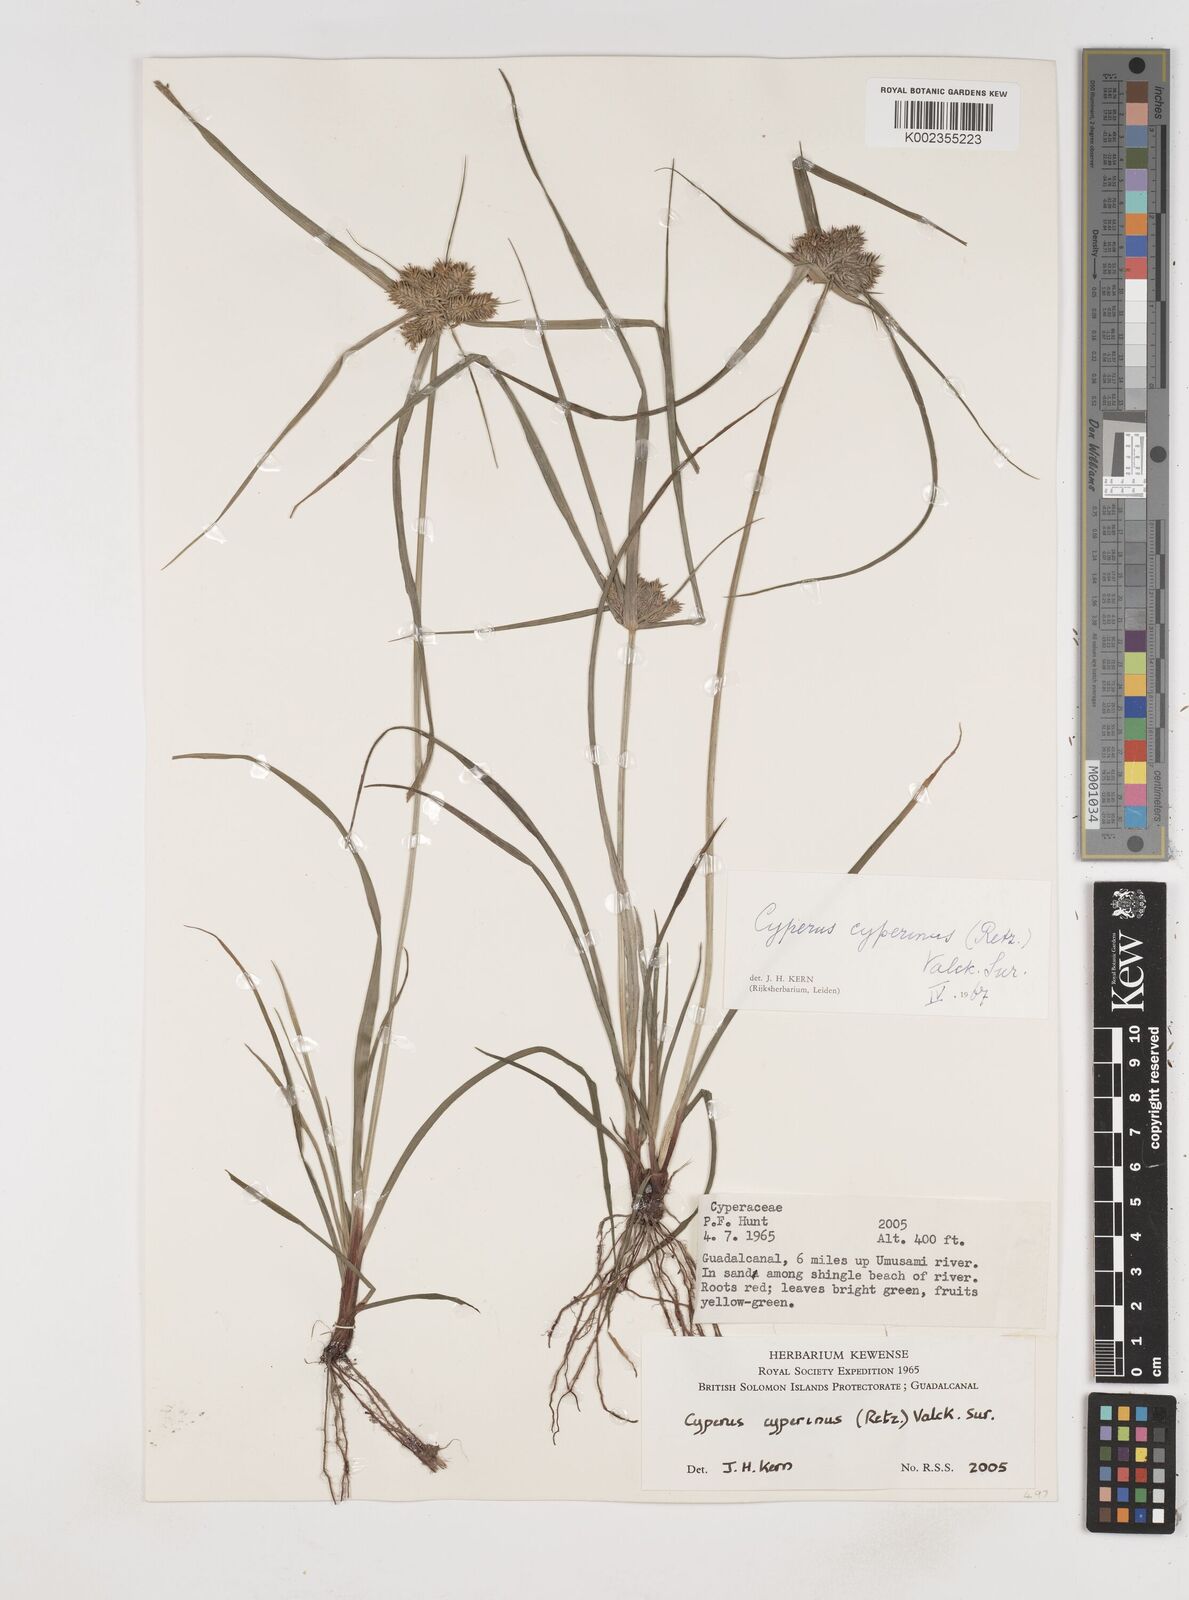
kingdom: Plantae
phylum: Tracheophyta
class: Liliopsida
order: Poales
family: Cyperaceae
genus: Cyperus
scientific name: Cyperus cyperinus
